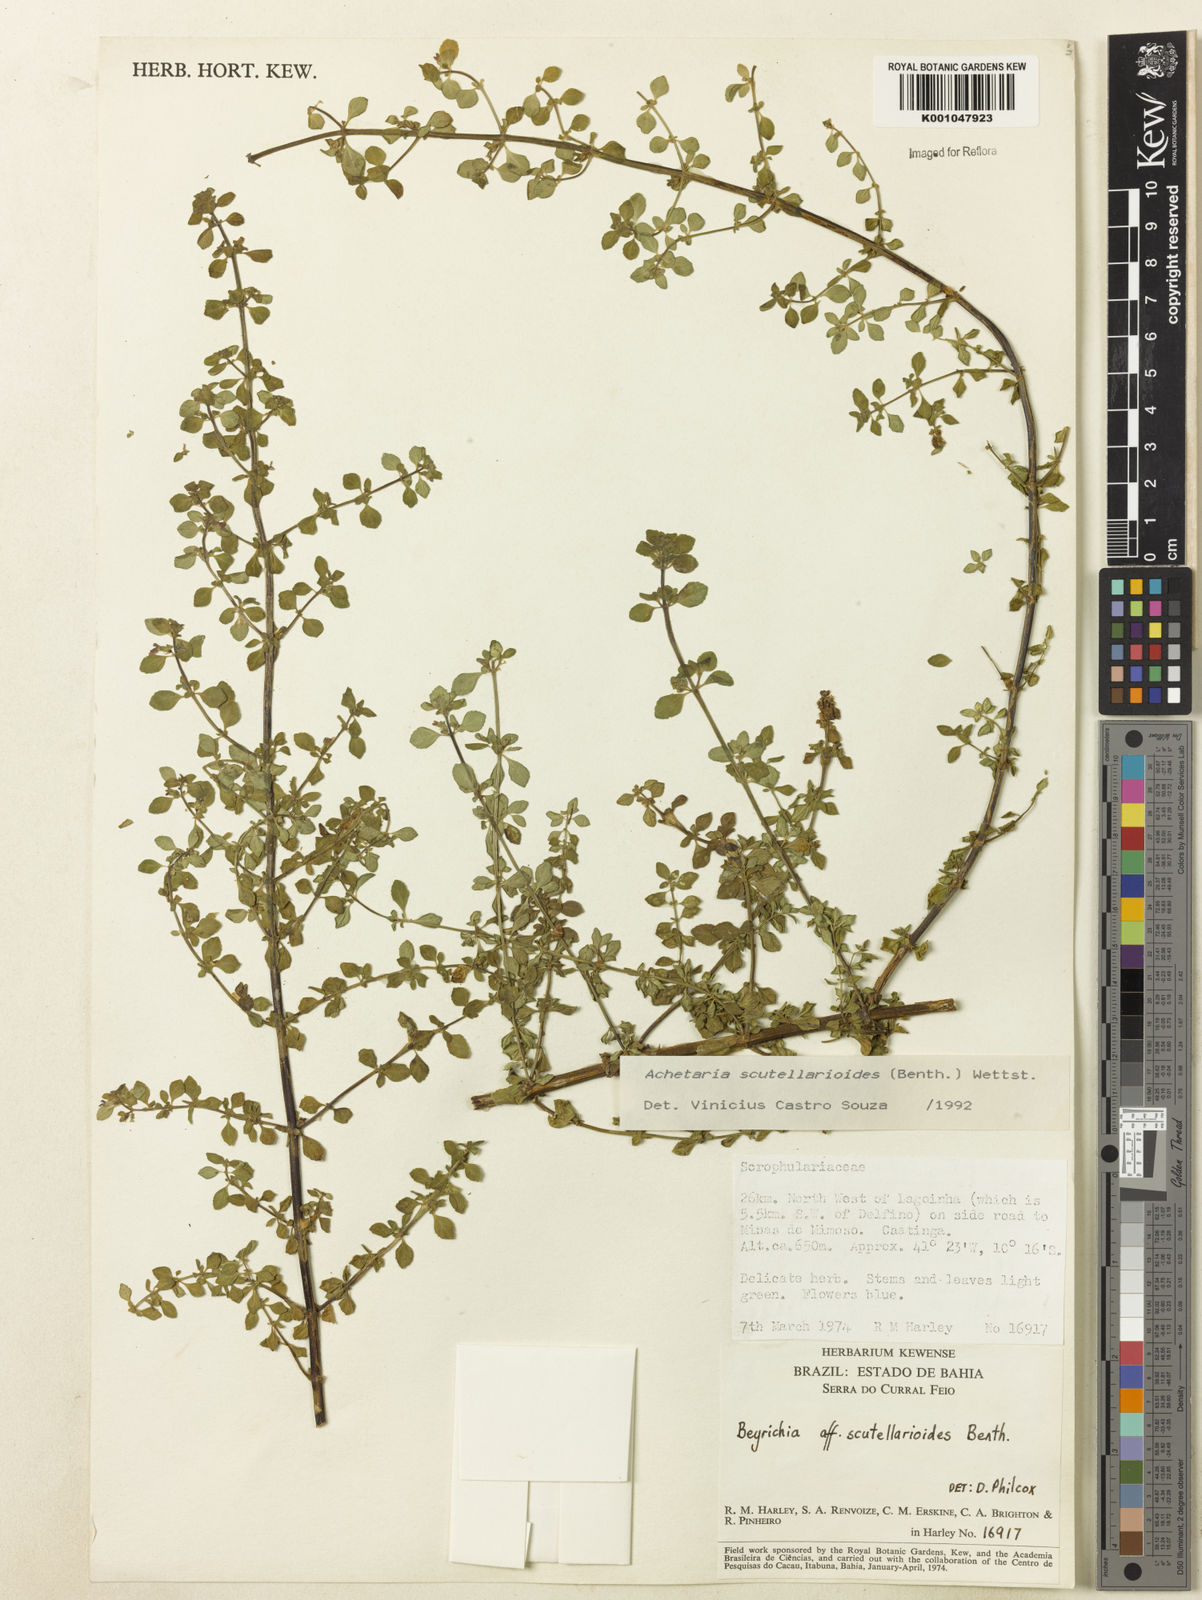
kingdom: Plantae
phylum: Tracheophyta
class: Magnoliopsida
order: Lamiales
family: Plantaginaceae
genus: Matourea
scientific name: Matourea scutellarioides
